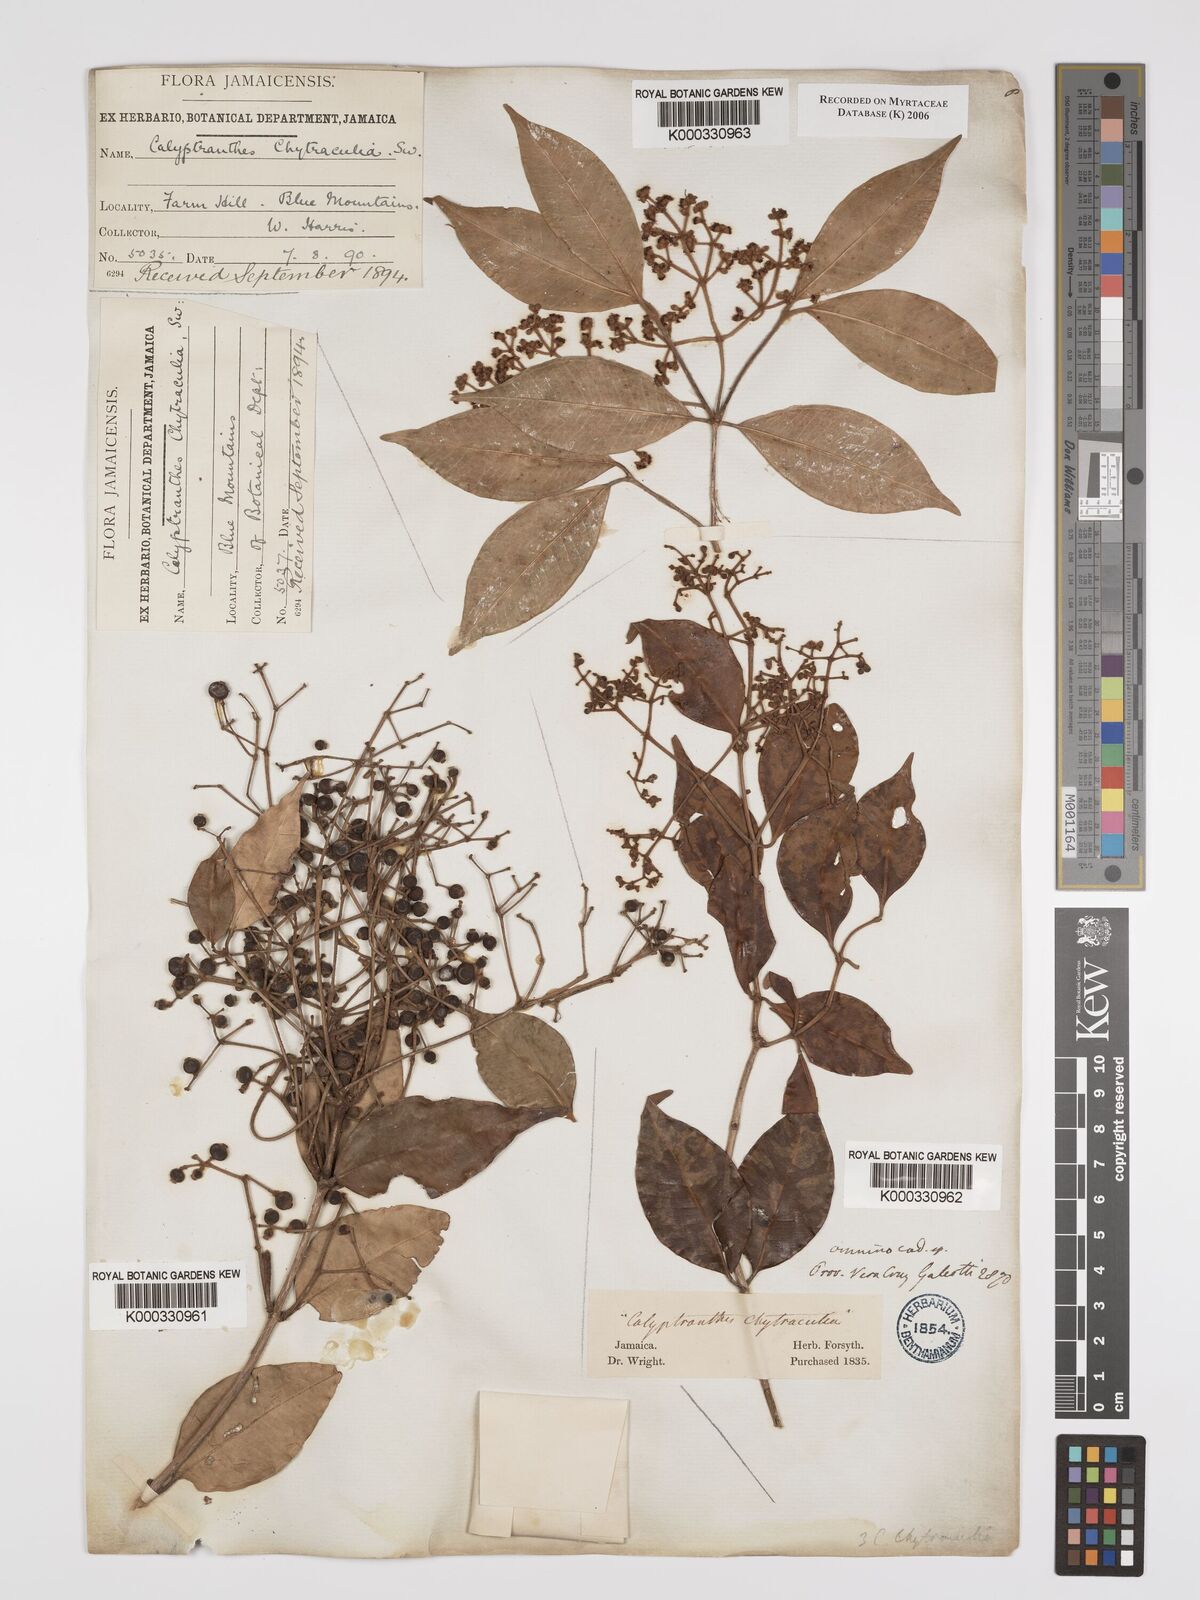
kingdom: Plantae
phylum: Tracheophyta
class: Magnoliopsida
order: Myrtales
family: Myrtaceae
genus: Myrcia
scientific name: Myrcia chytraculia
